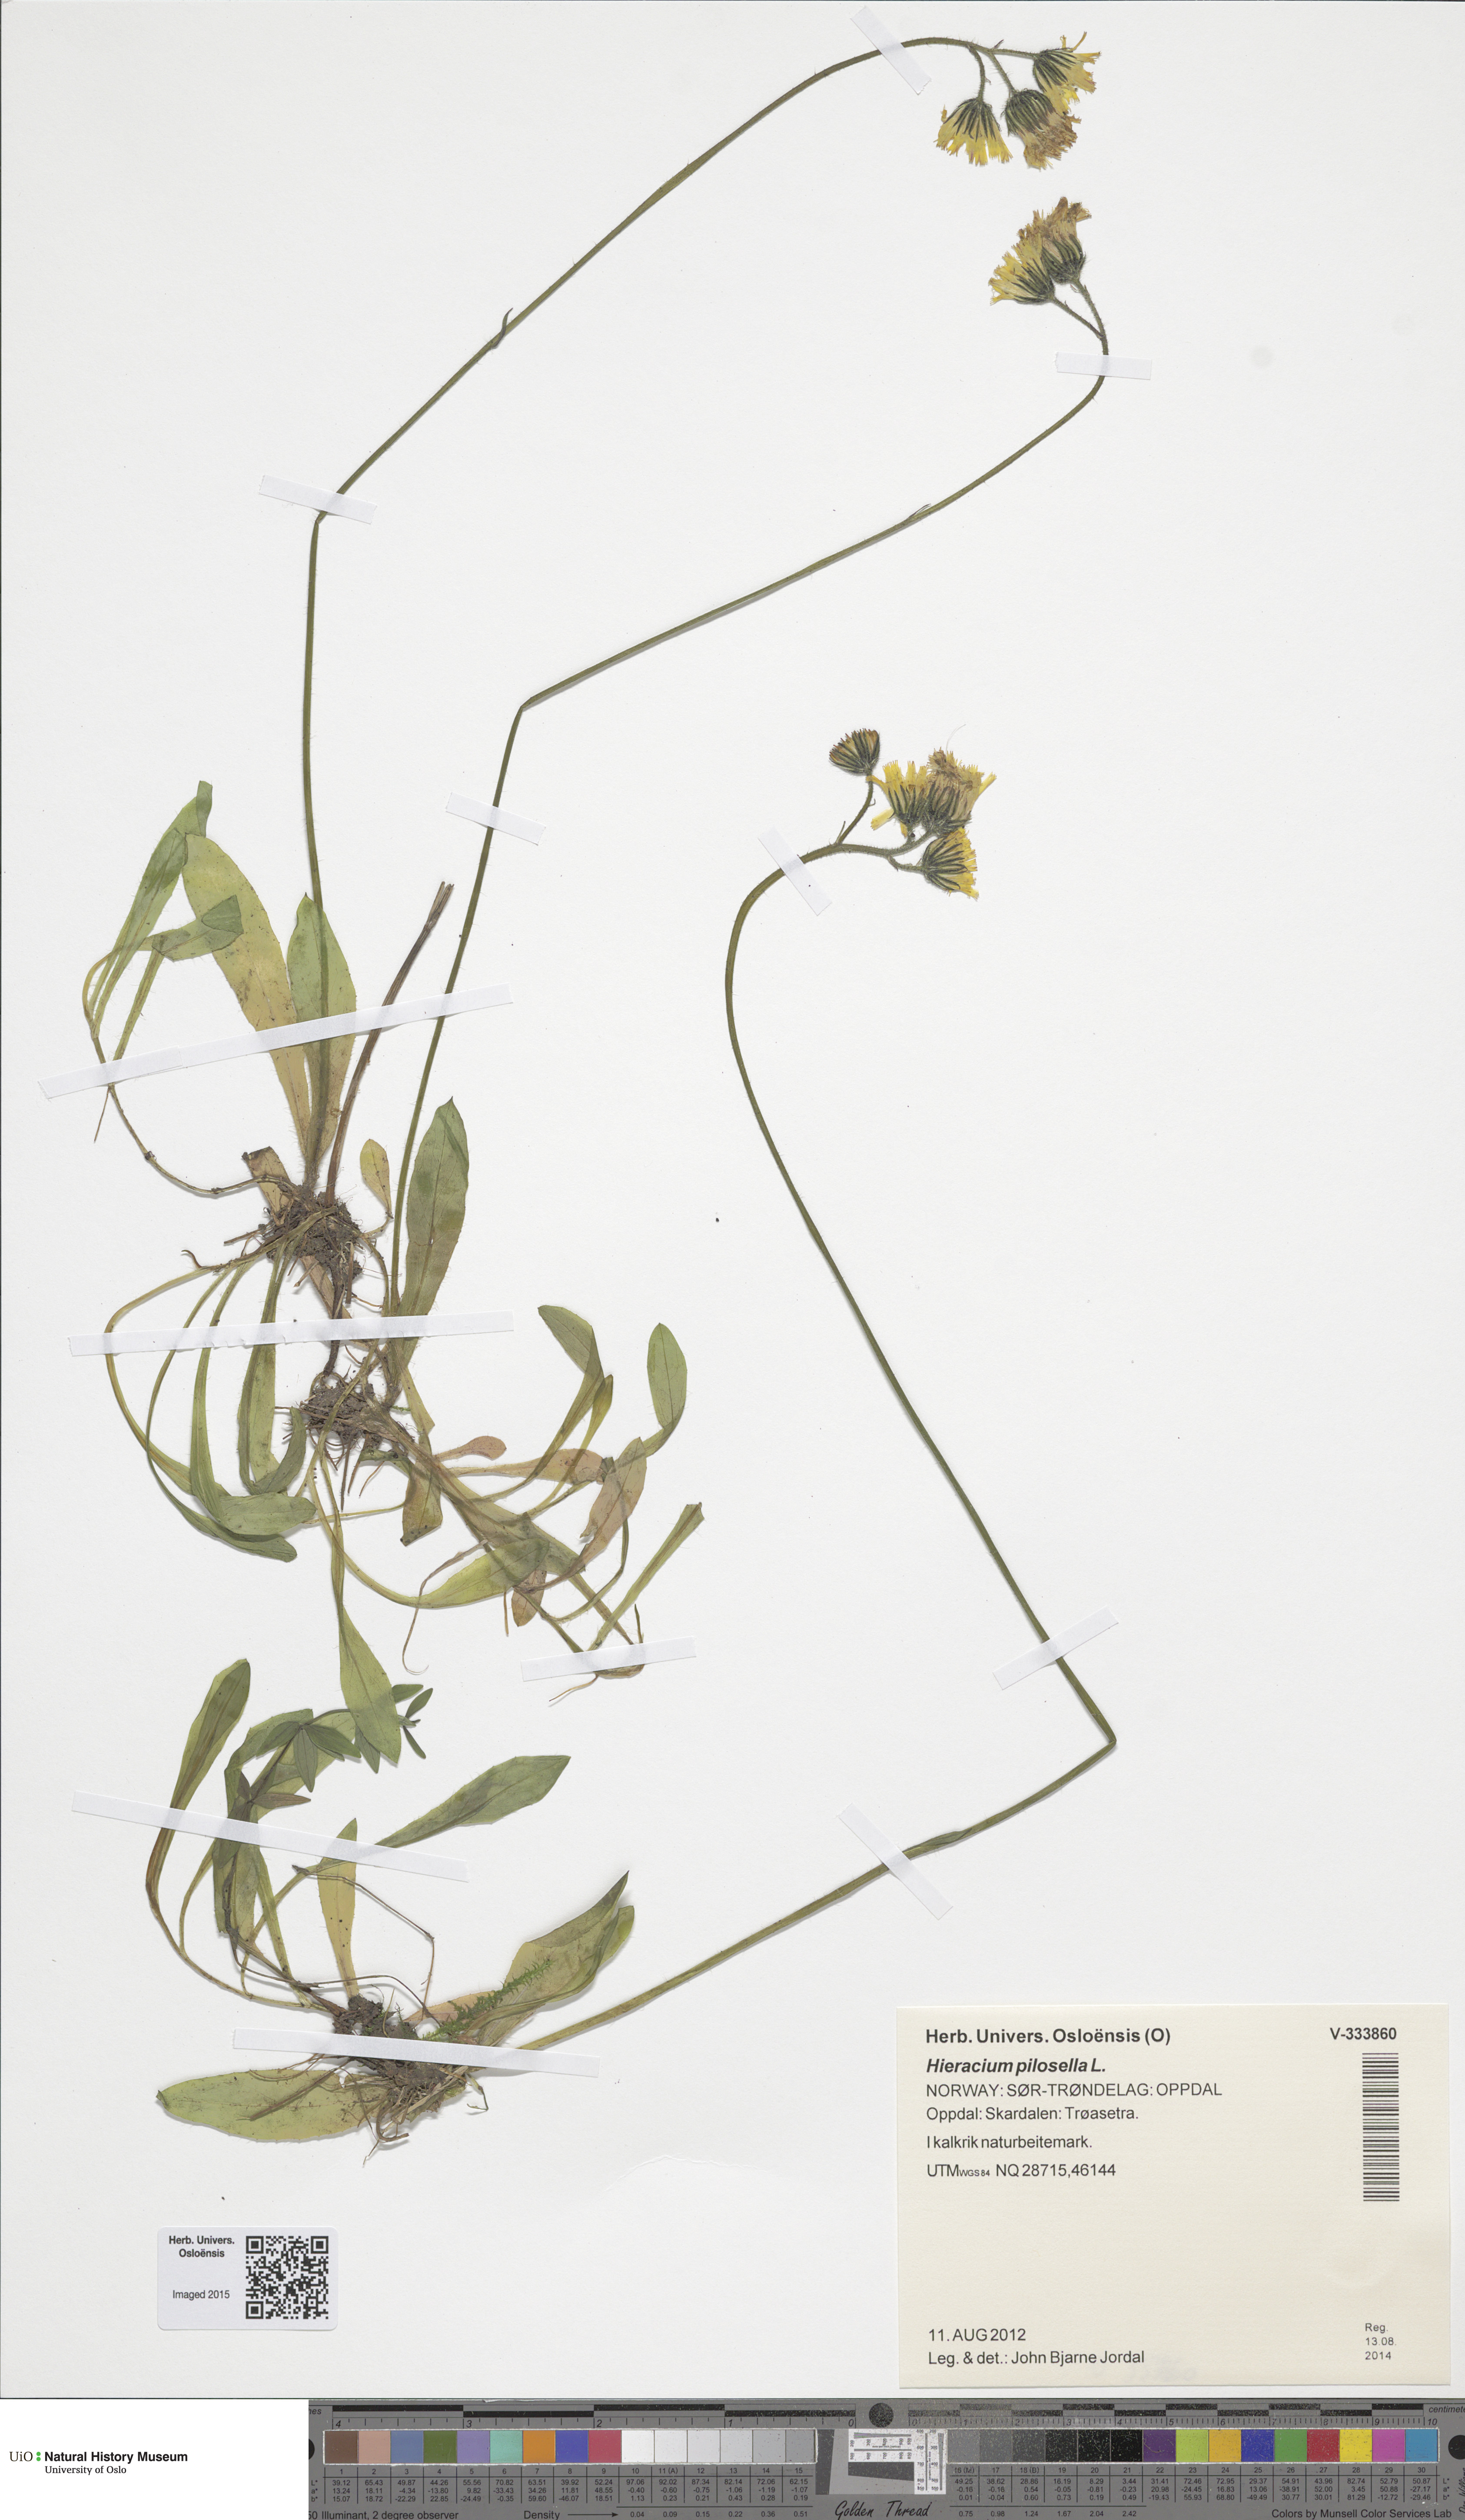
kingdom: Plantae
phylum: Tracheophyta
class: Magnoliopsida
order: Asterales
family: Asteraceae
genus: Pilosella
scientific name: Pilosella officinarum
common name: Mouse-ear hawkweed
